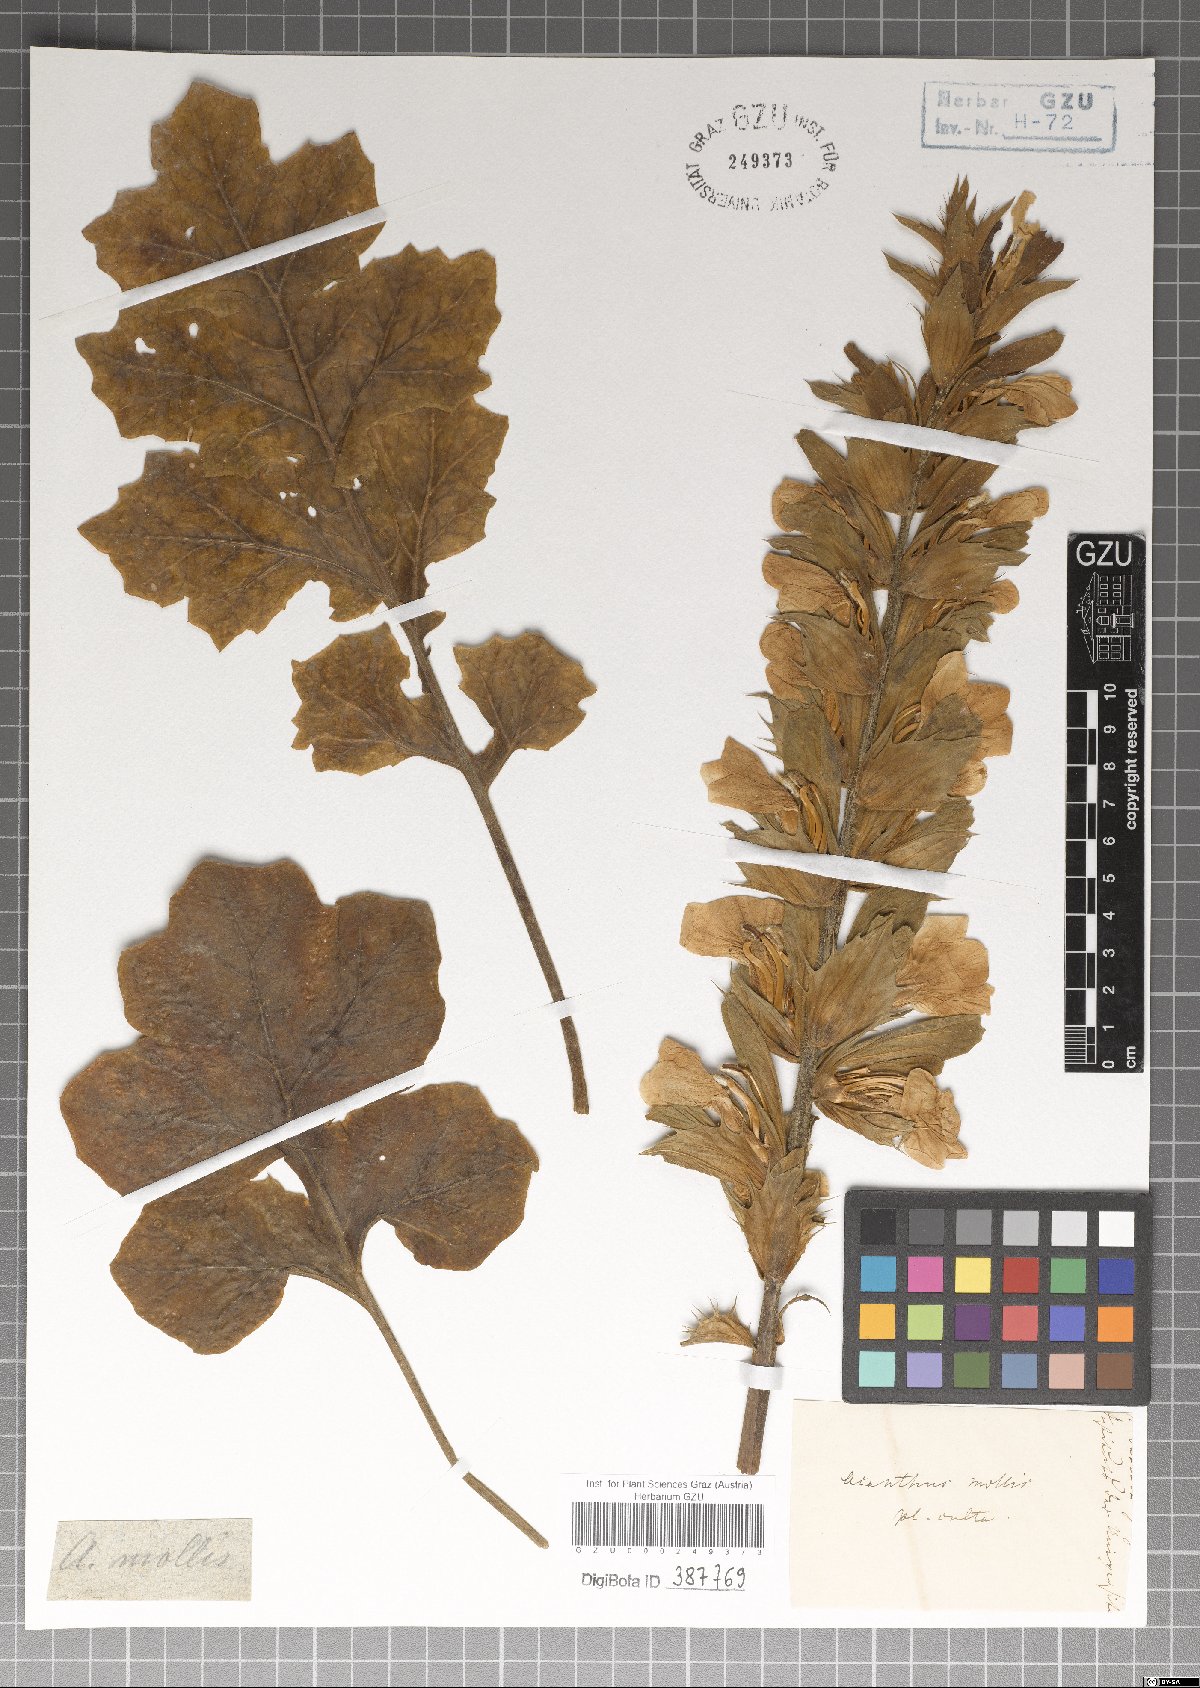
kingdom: Plantae
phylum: Tracheophyta
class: Magnoliopsida
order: Lamiales
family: Acanthaceae
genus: Acanthus
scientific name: Acanthus mollis
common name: Bear's-breech
